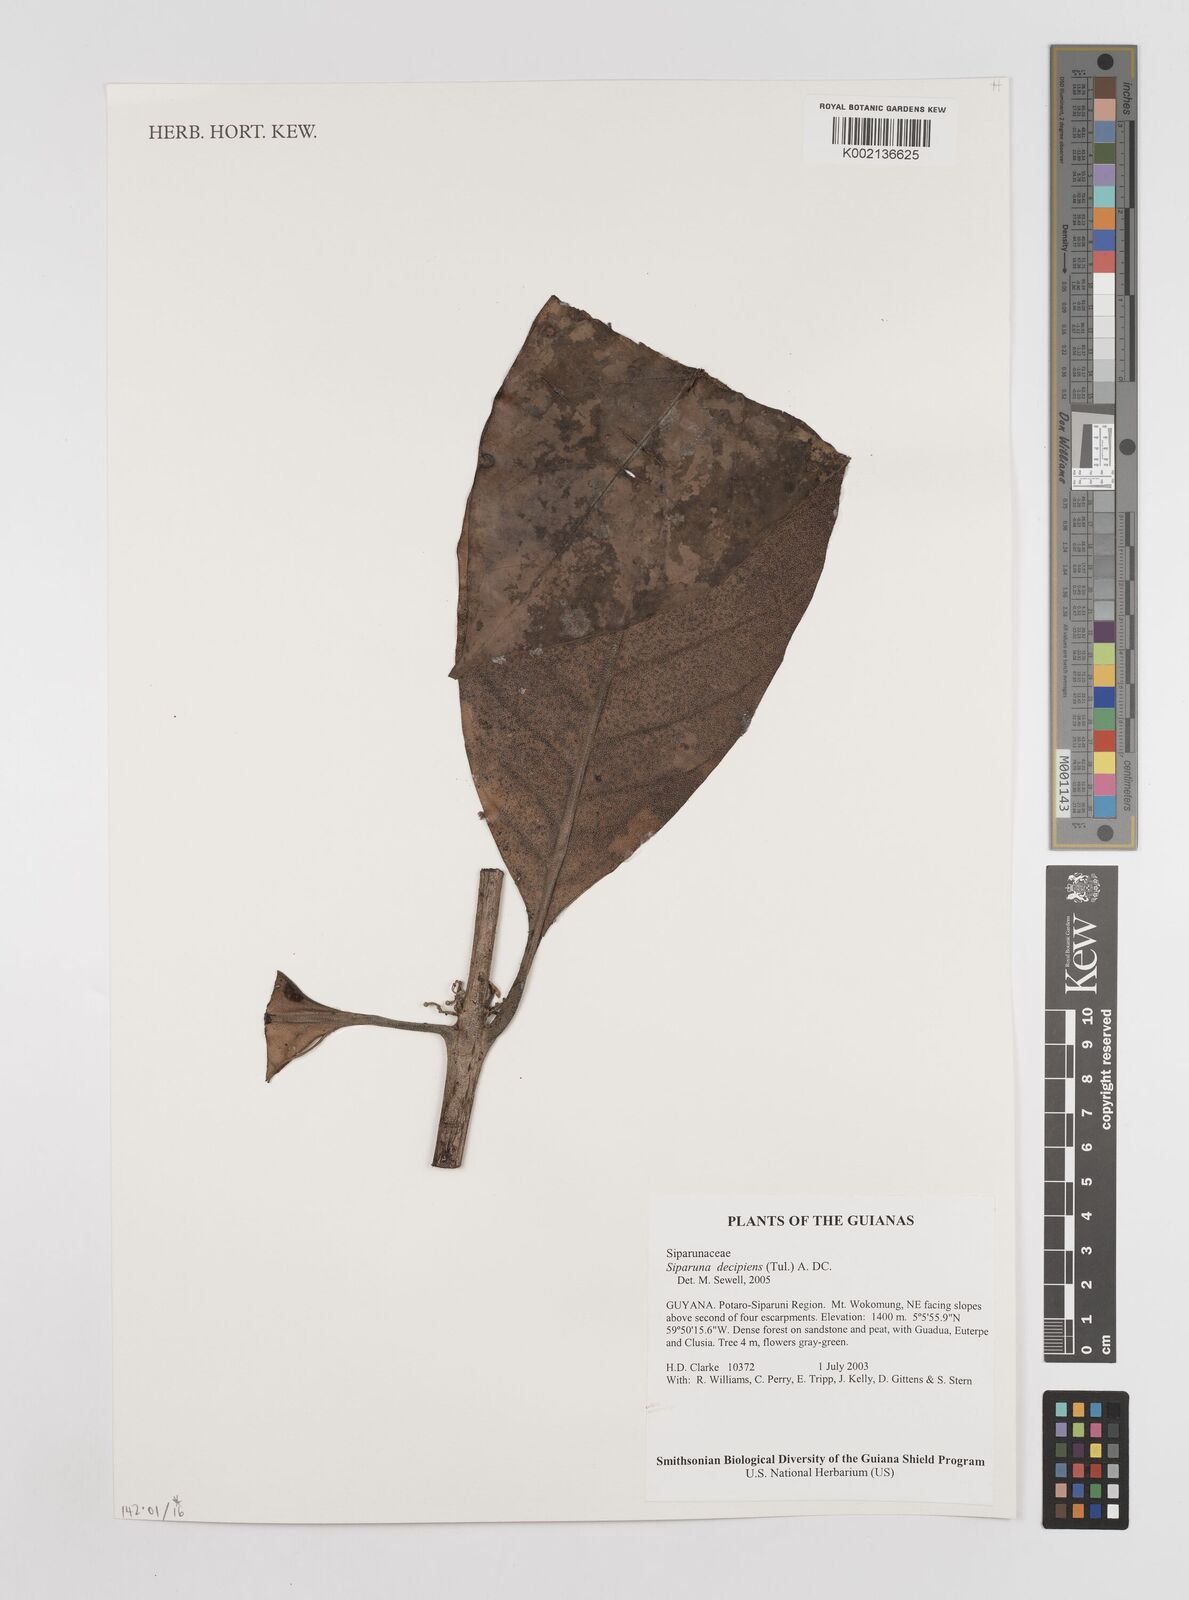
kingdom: Plantae
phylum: Tracheophyta
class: Magnoliopsida
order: Laurales
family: Siparunaceae
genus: Siparuna
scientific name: Siparuna decipiens
